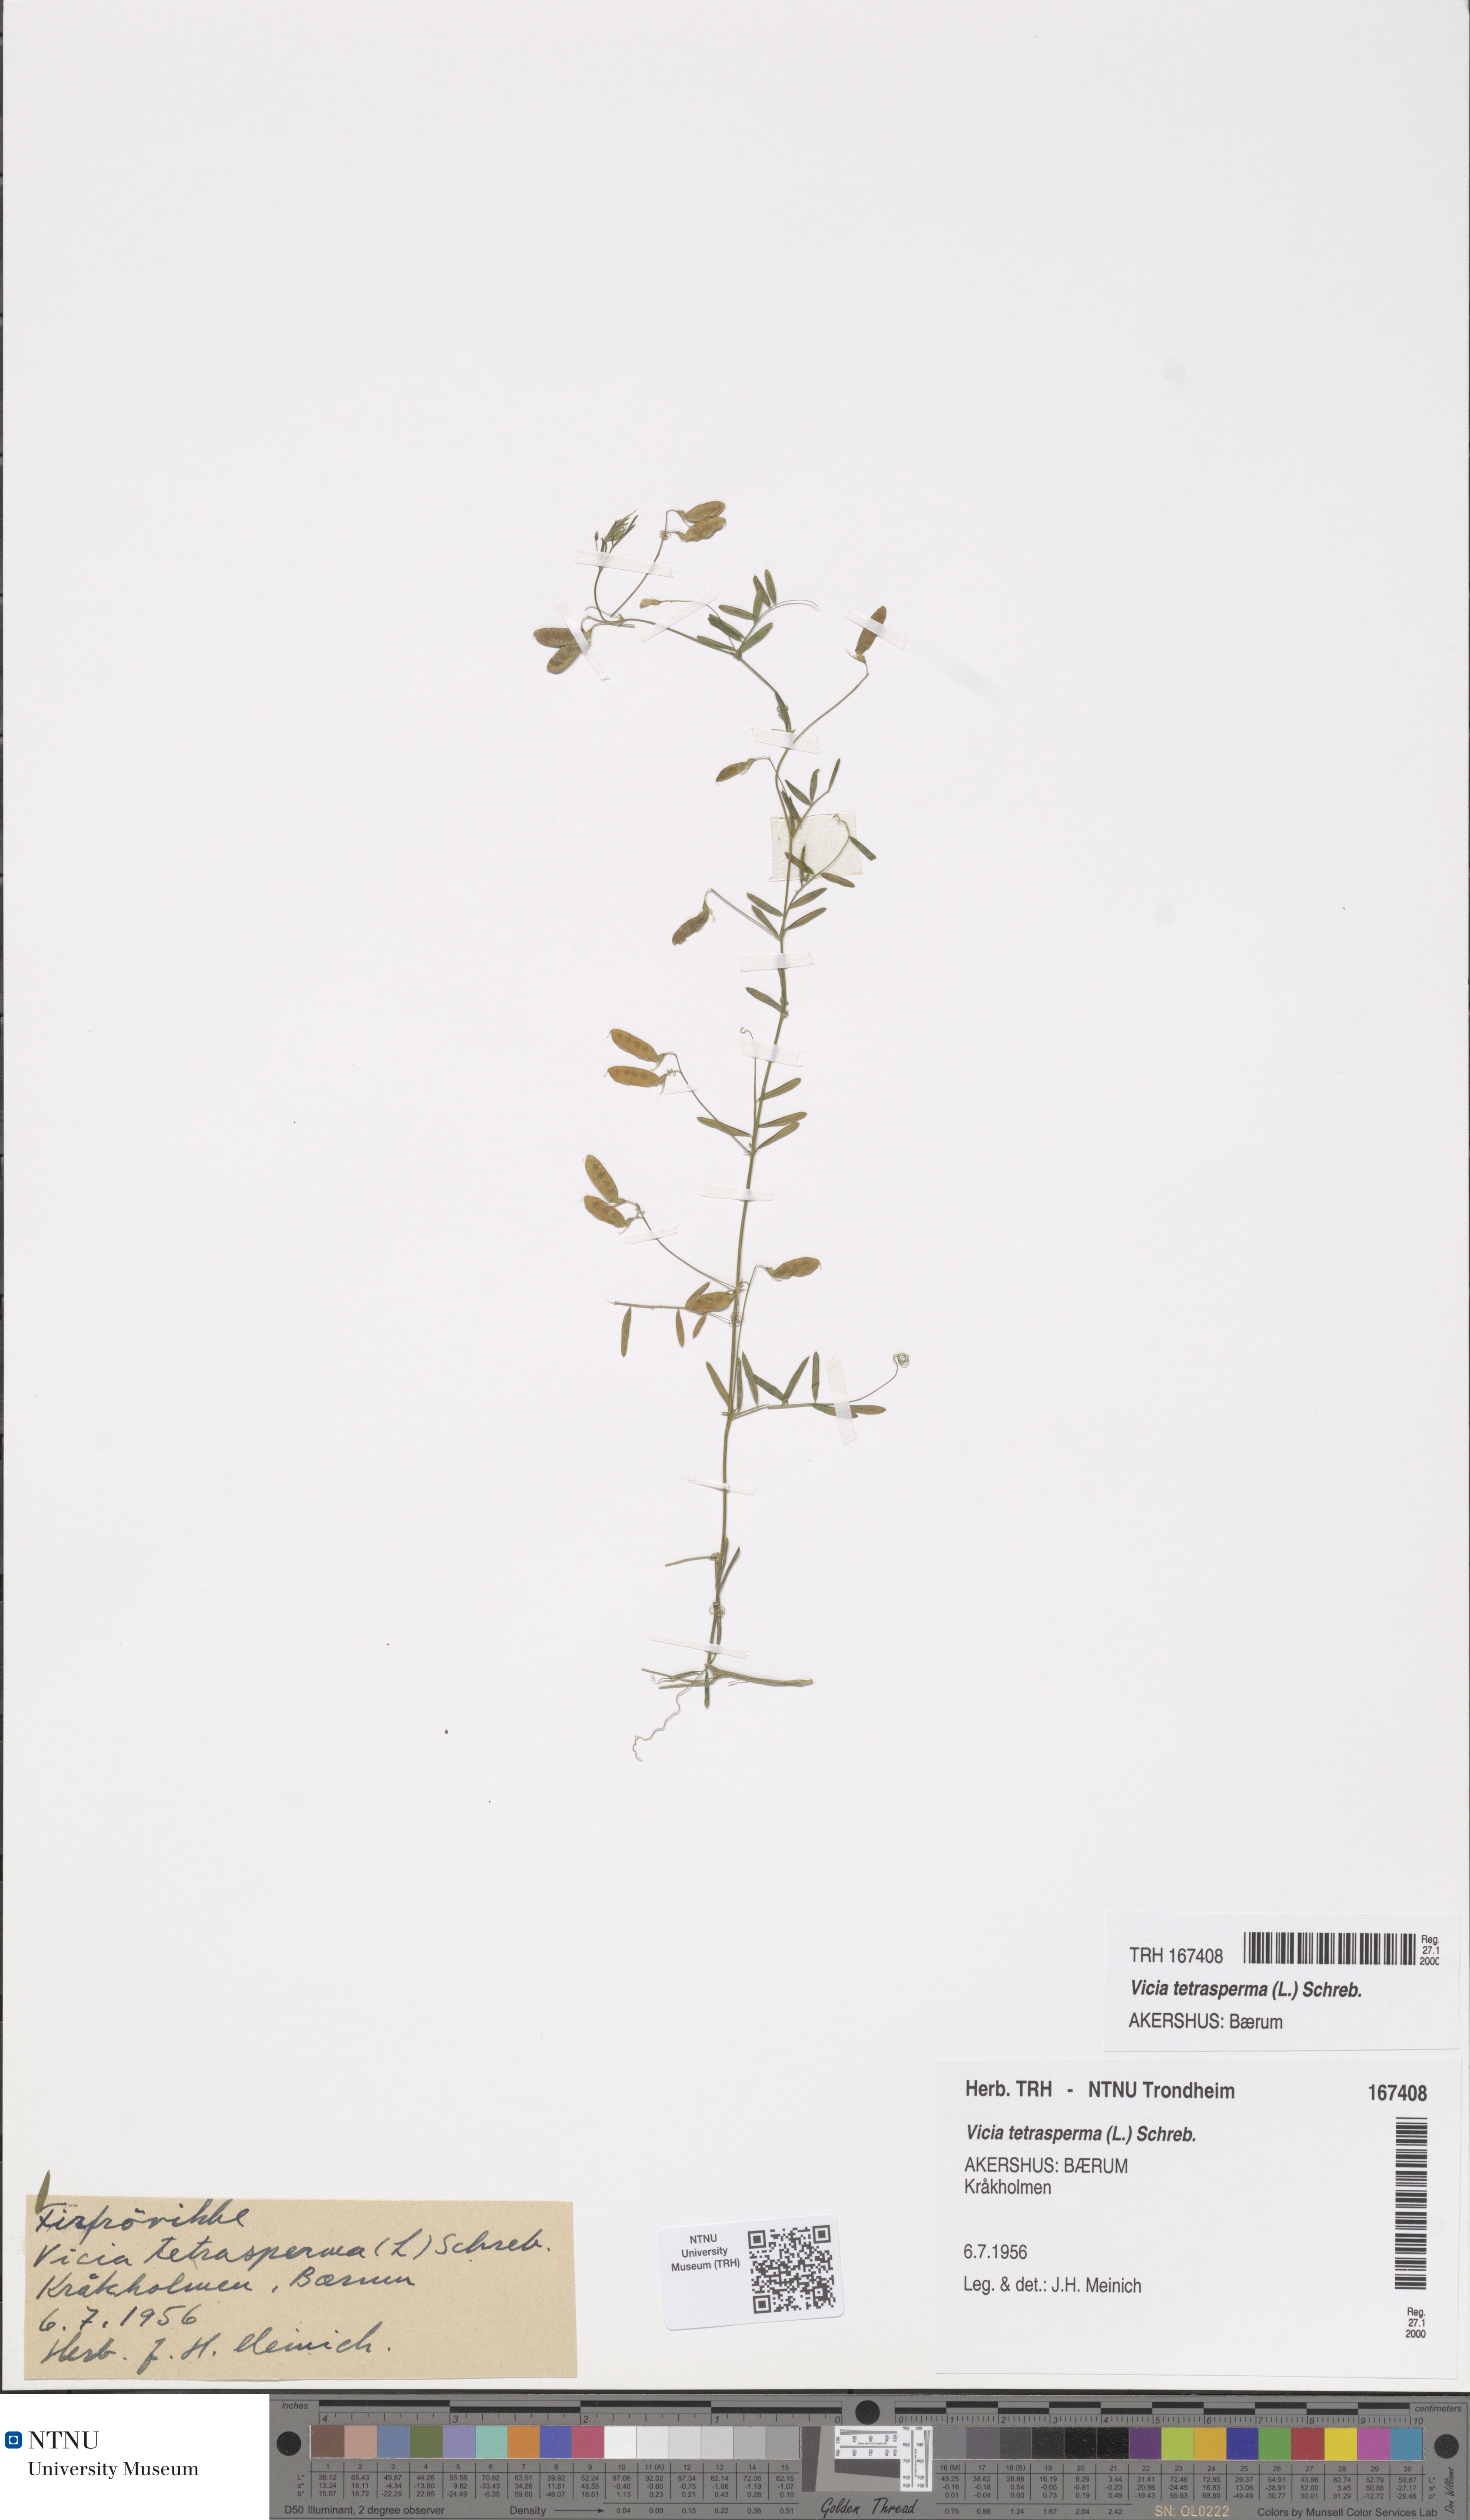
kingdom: Plantae
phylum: Tracheophyta
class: Magnoliopsida
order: Fabales
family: Fabaceae
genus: Vicia
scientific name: Vicia tetrasperma
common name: Smooth tare
